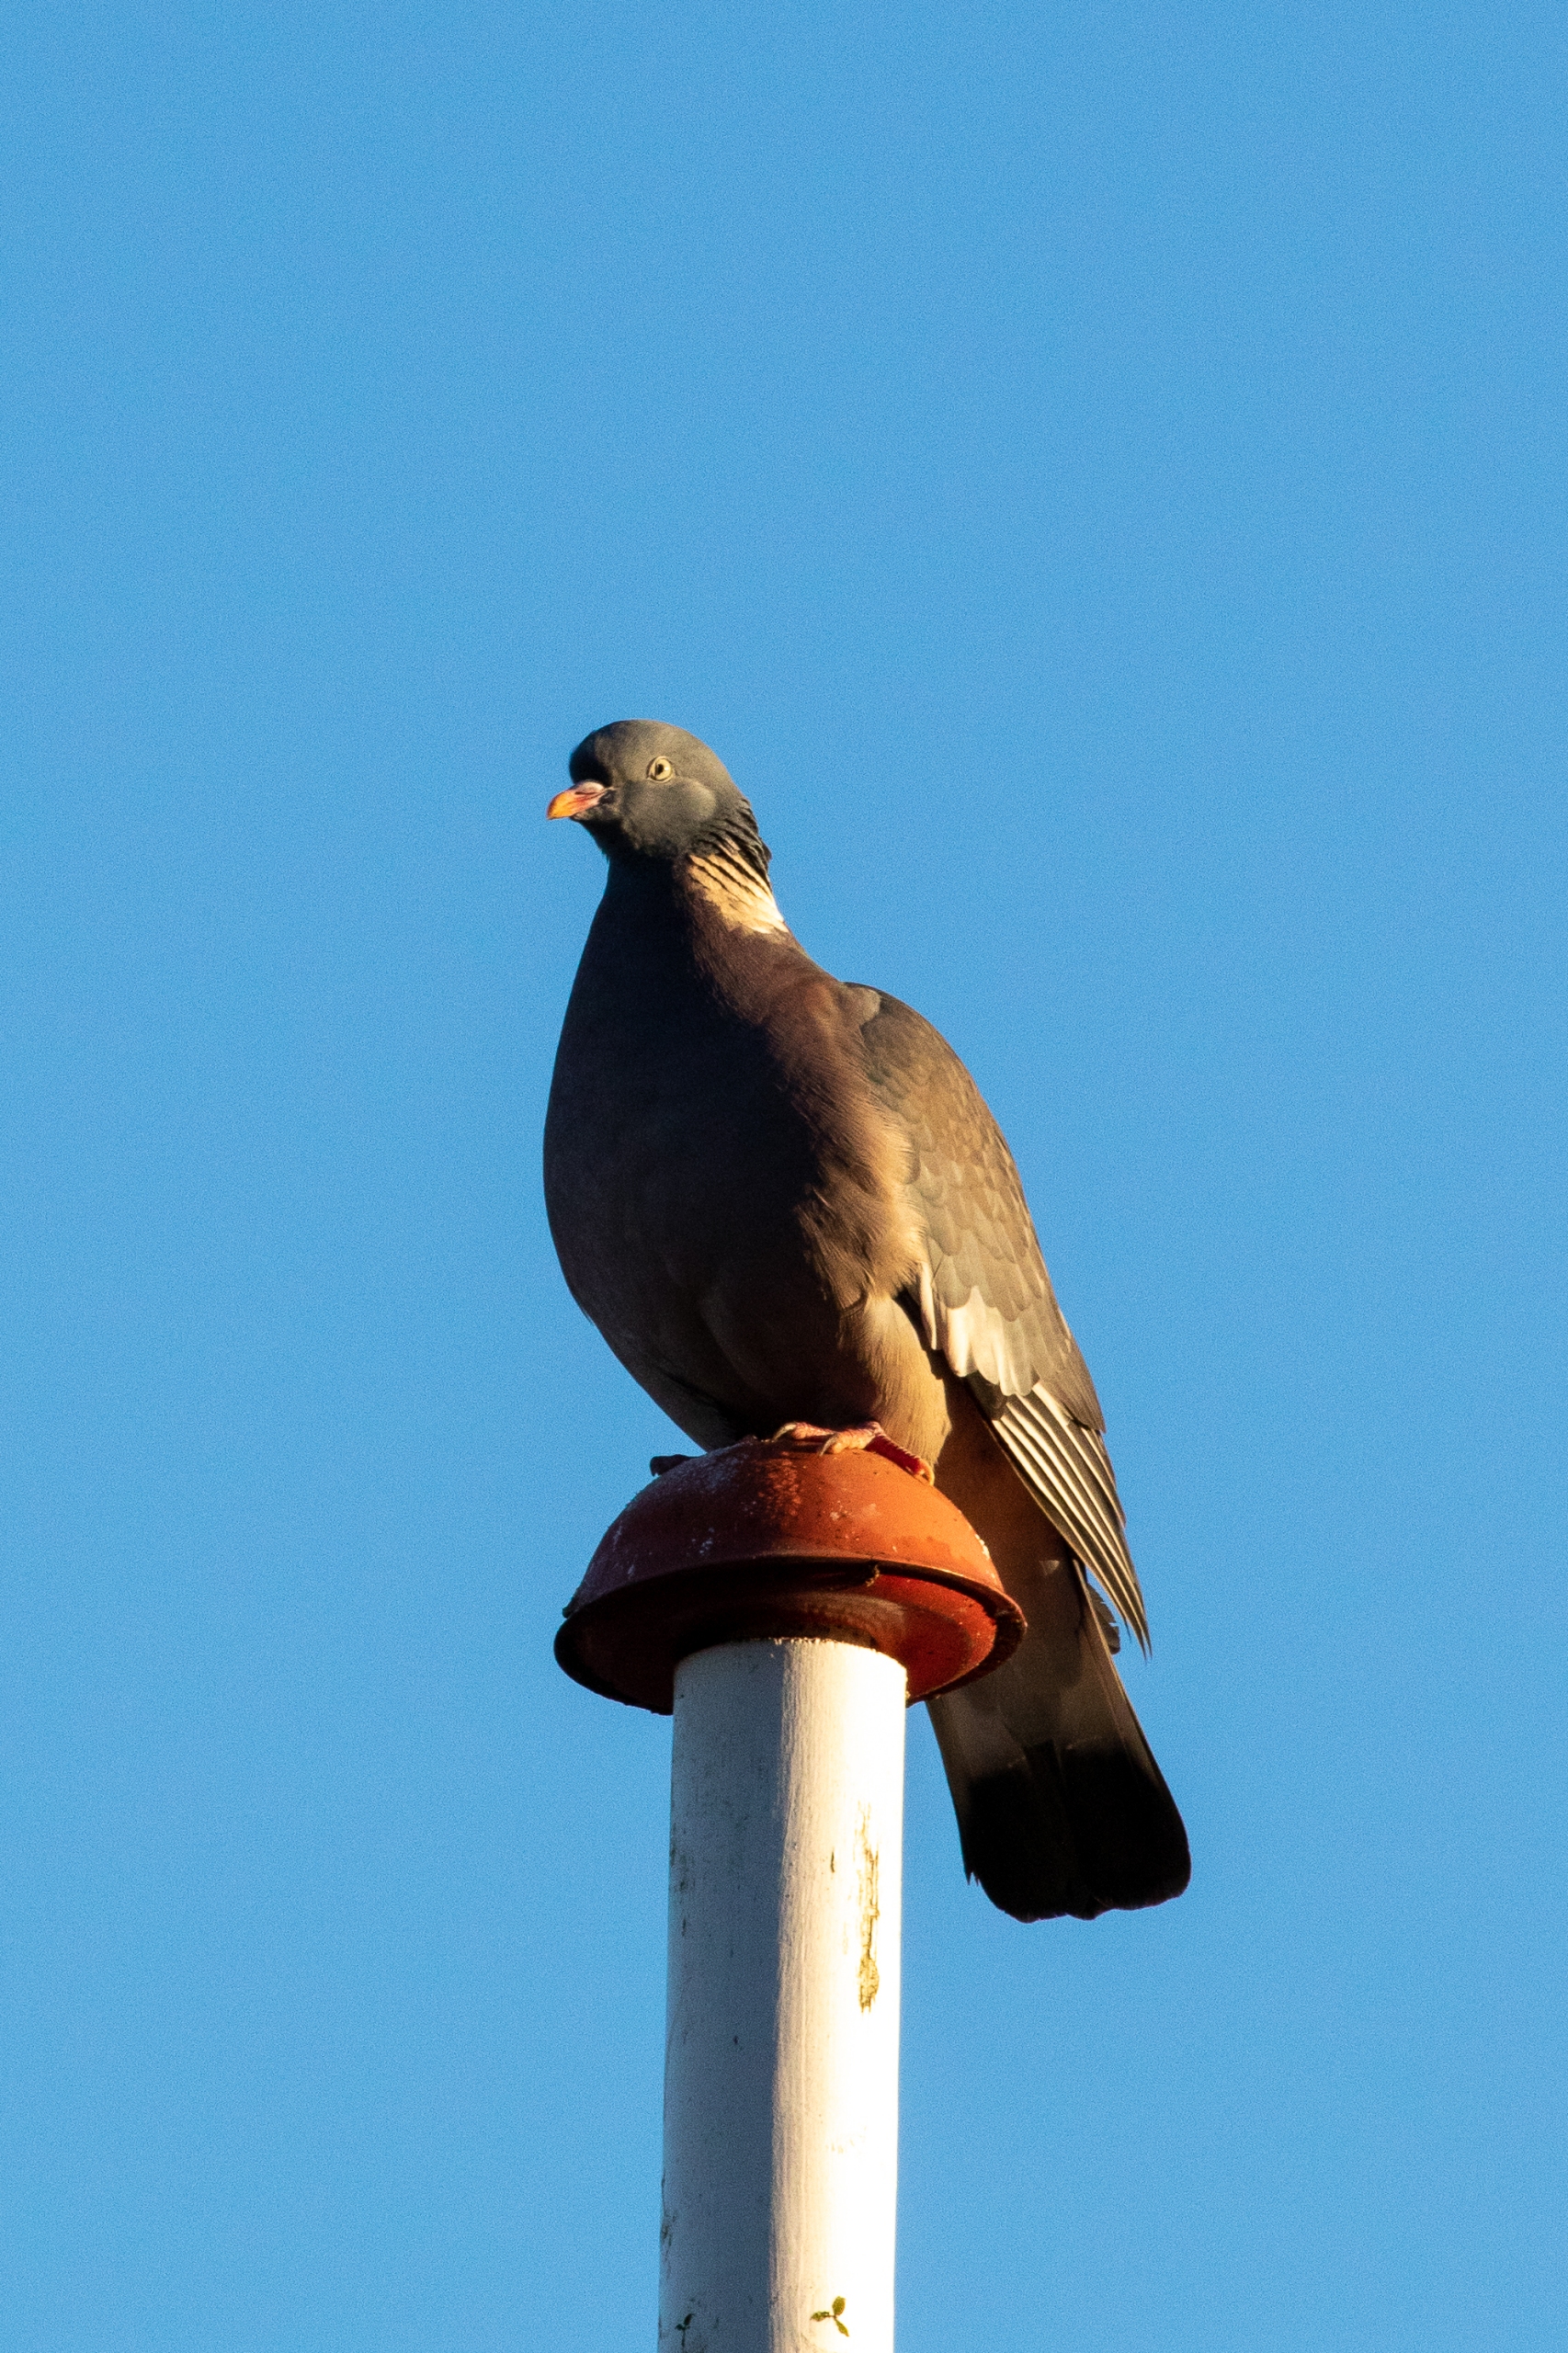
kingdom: Animalia
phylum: Chordata
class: Aves
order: Columbiformes
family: Columbidae
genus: Columba
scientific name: Columba palumbus
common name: Ringdue
